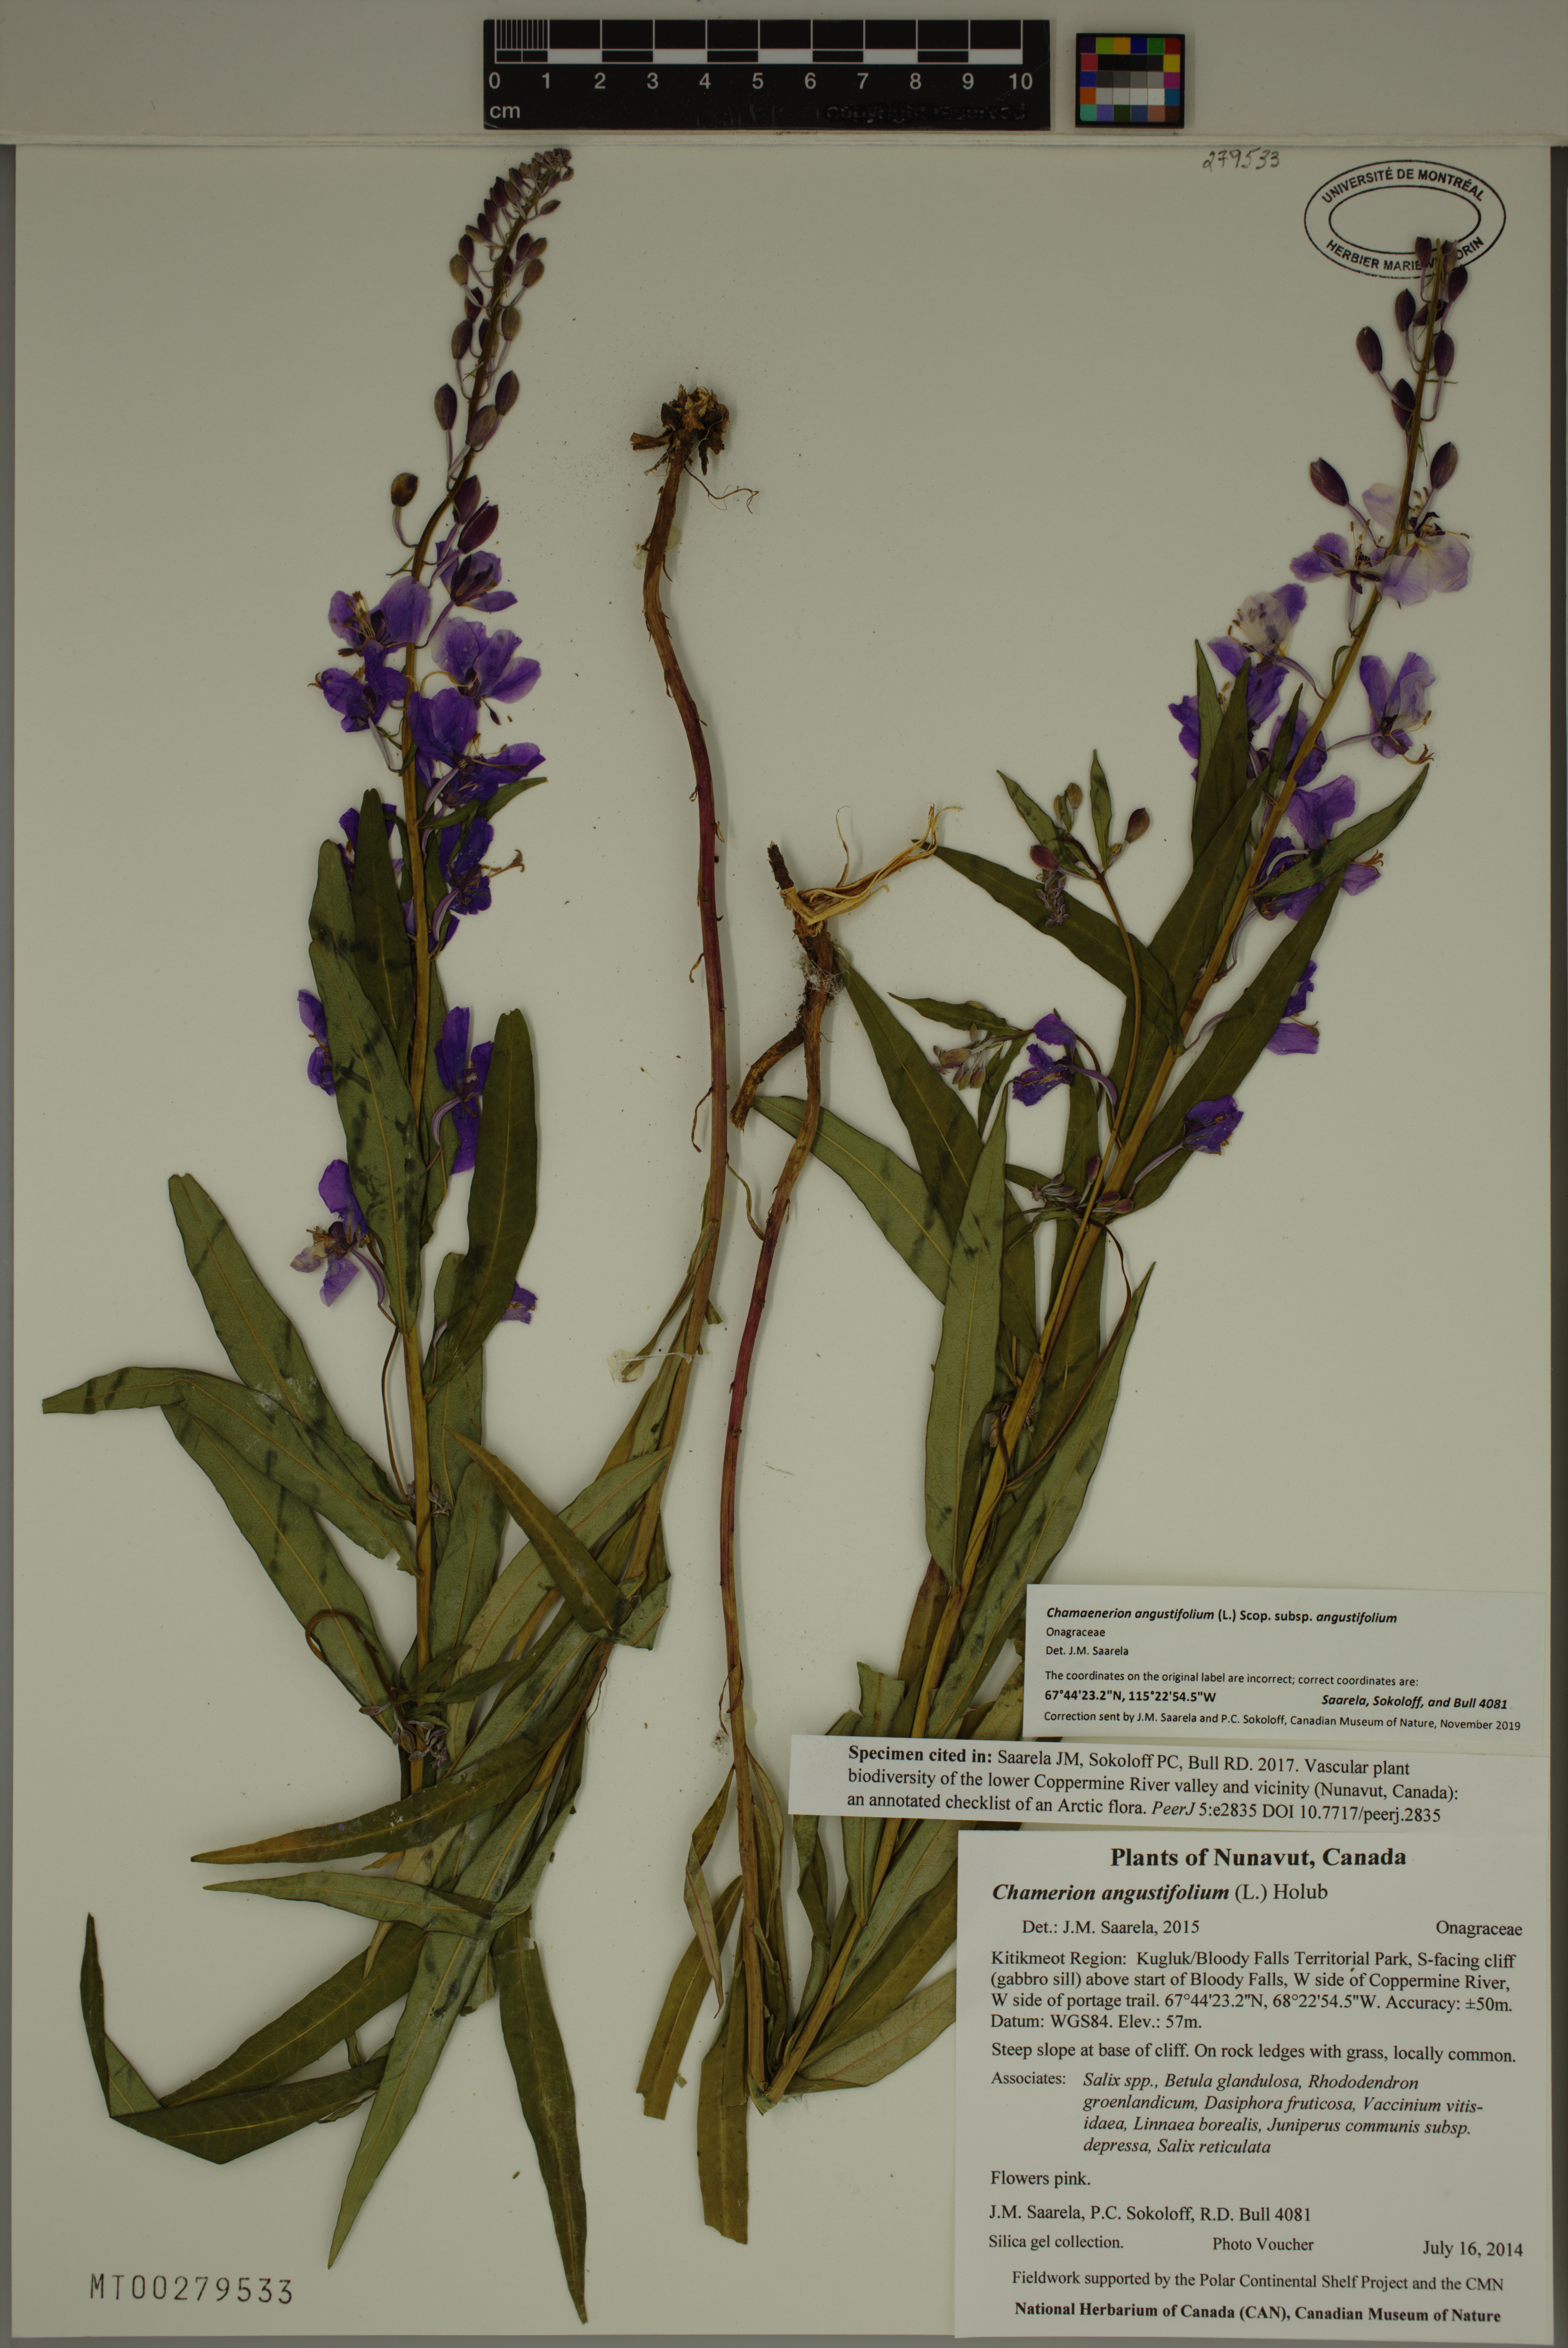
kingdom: Plantae
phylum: Tracheophyta
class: Magnoliopsida
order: Myrtales
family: Onagraceae
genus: Chamaenerion
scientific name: Chamaenerion angustifolium
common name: Fireweed
